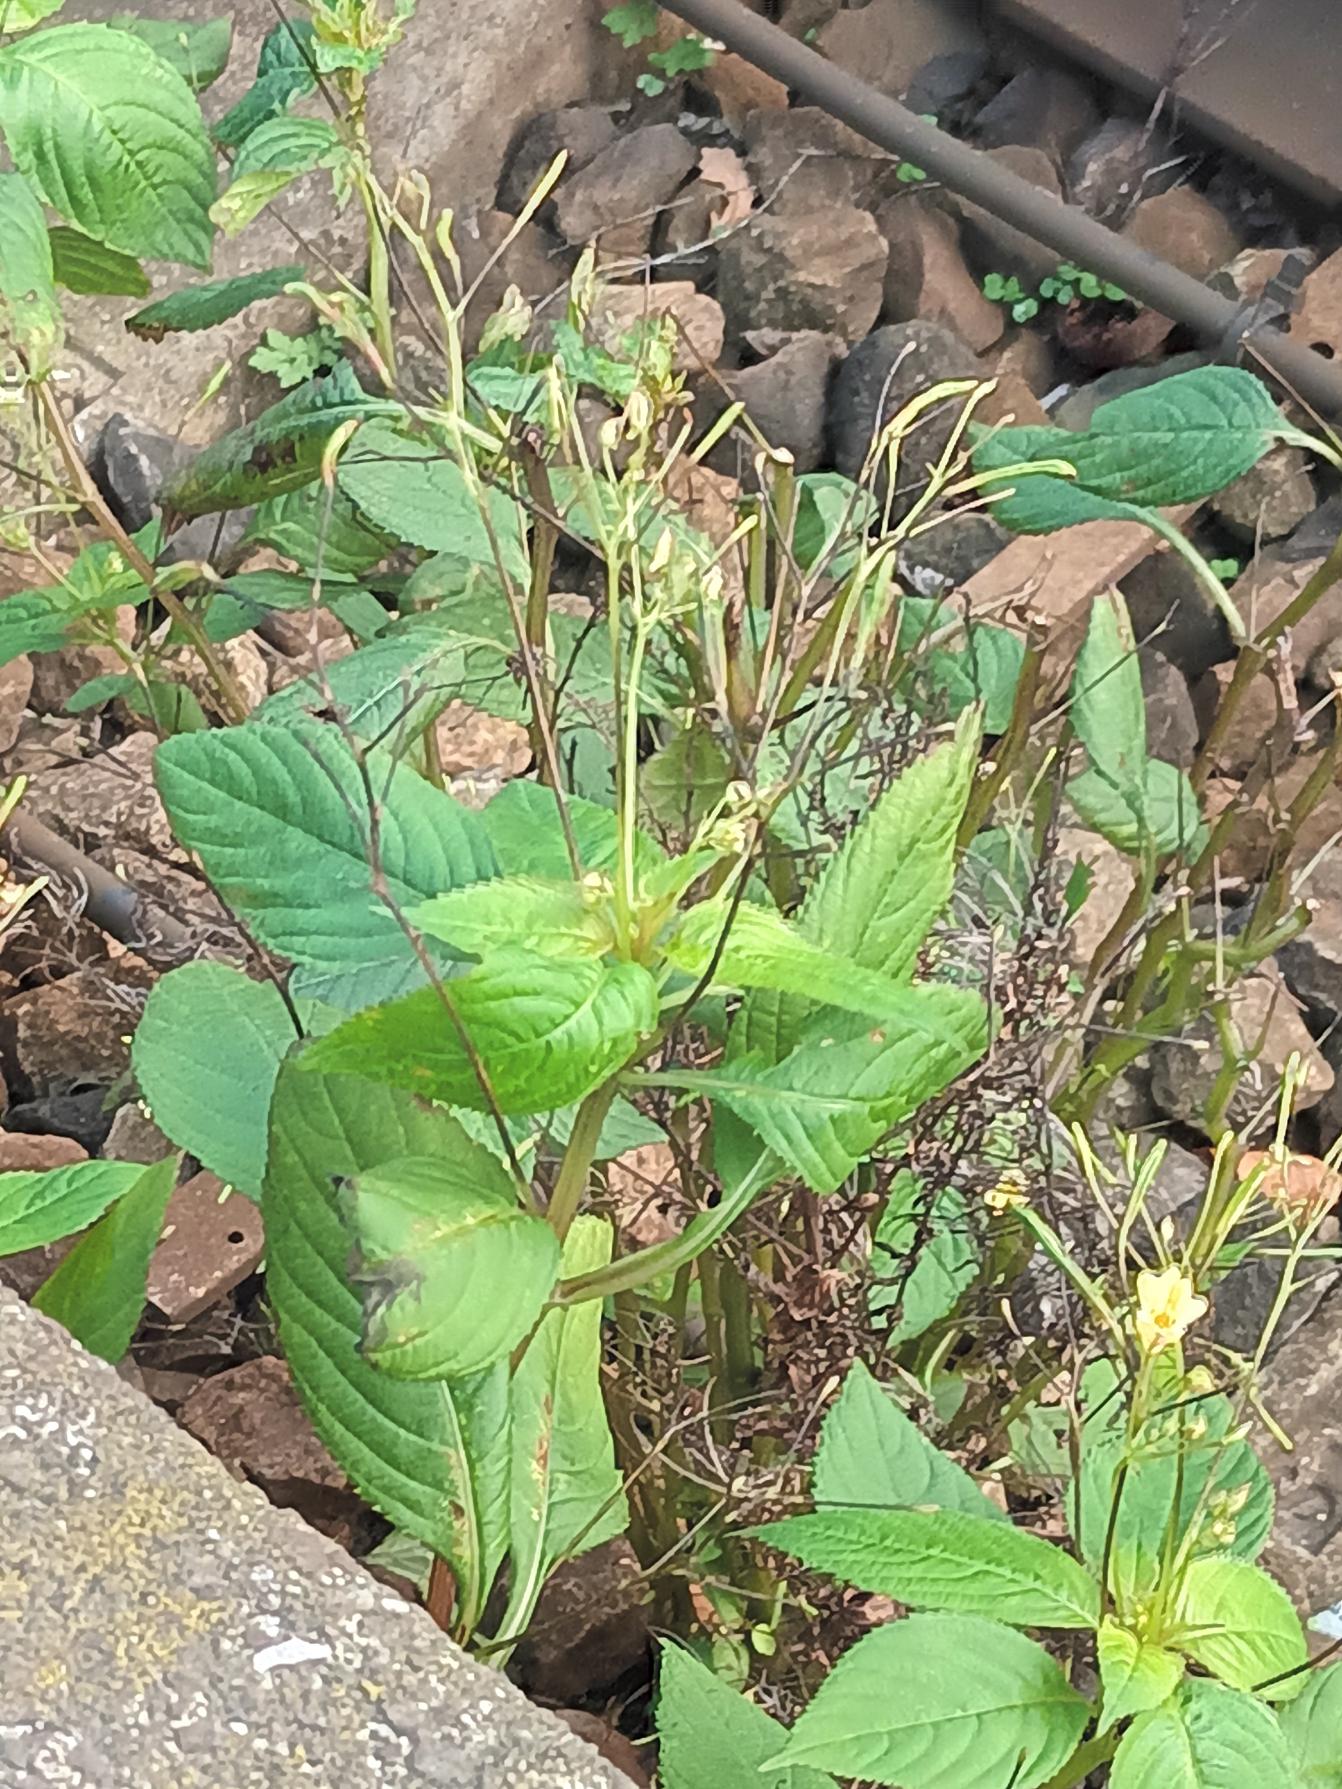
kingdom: Plantae
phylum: Tracheophyta
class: Magnoliopsida
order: Ericales
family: Balsaminaceae
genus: Impatiens
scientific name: Impatiens parviflora
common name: Småblomstret balsamin
